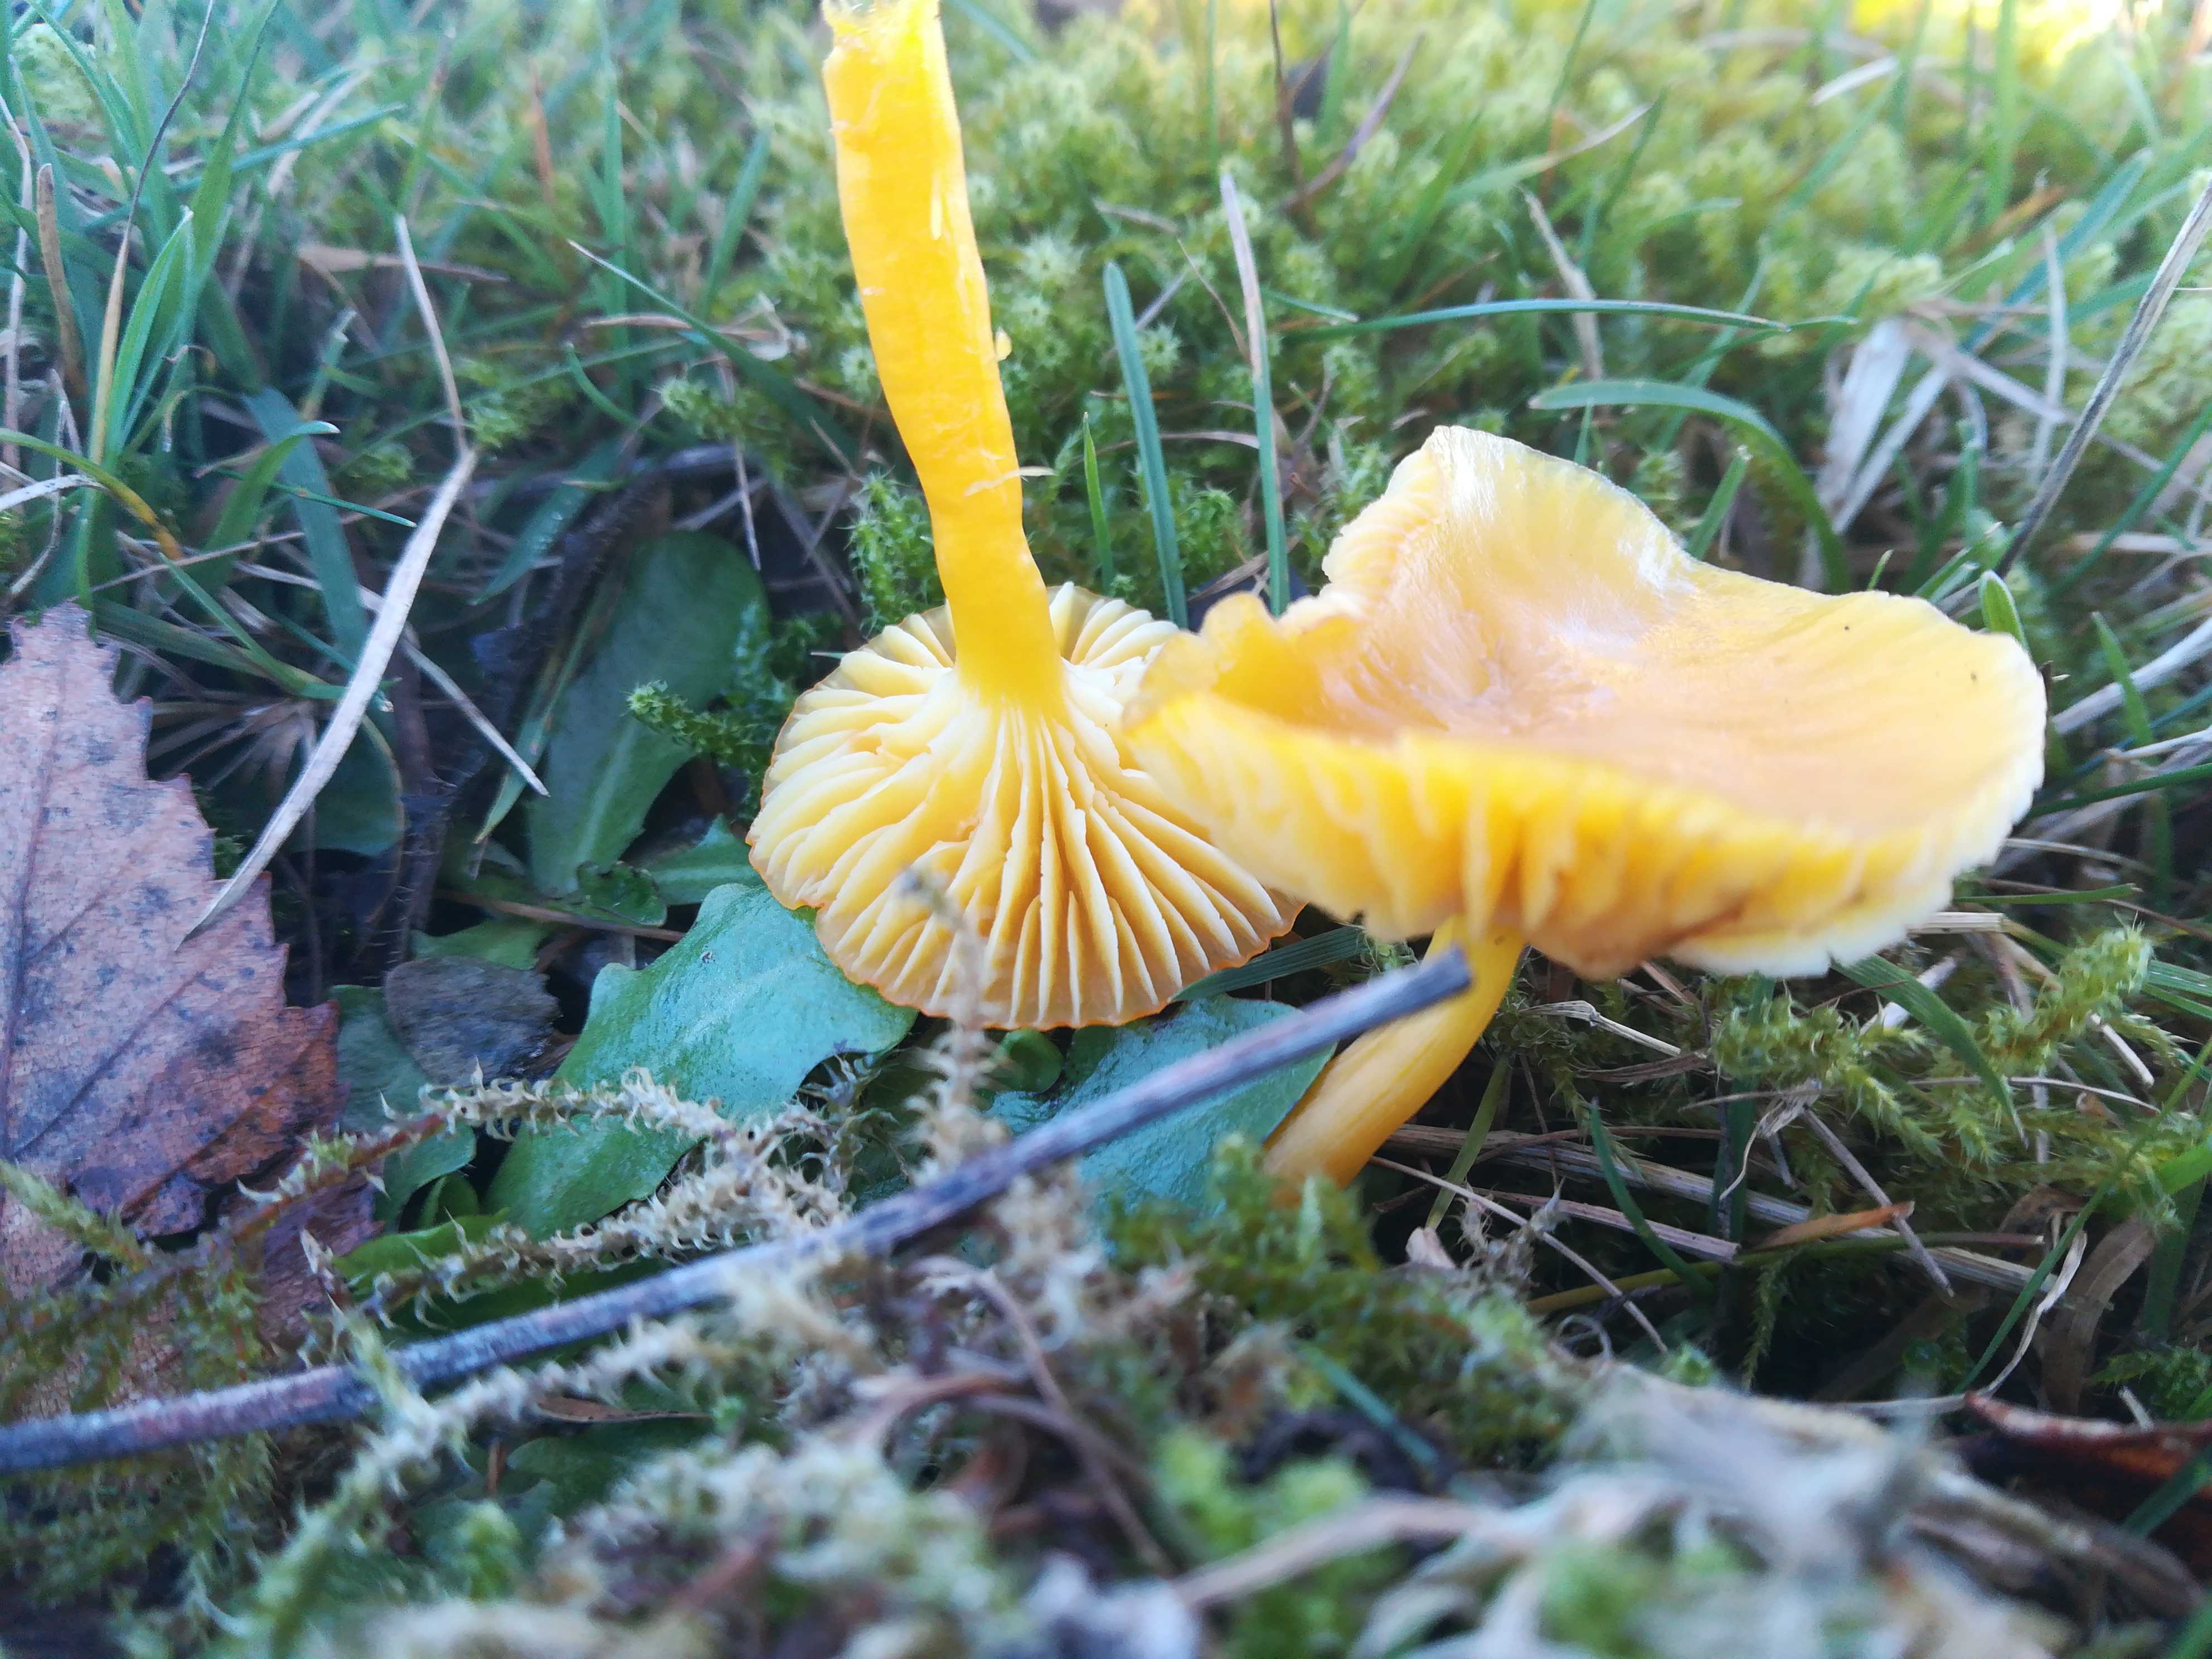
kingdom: Fungi
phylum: Basidiomycota
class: Agaricomycetes
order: Agaricales
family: Hygrophoraceae
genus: Hygrocybe
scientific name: Hygrocybe ceracea
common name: voksgul vokshat
